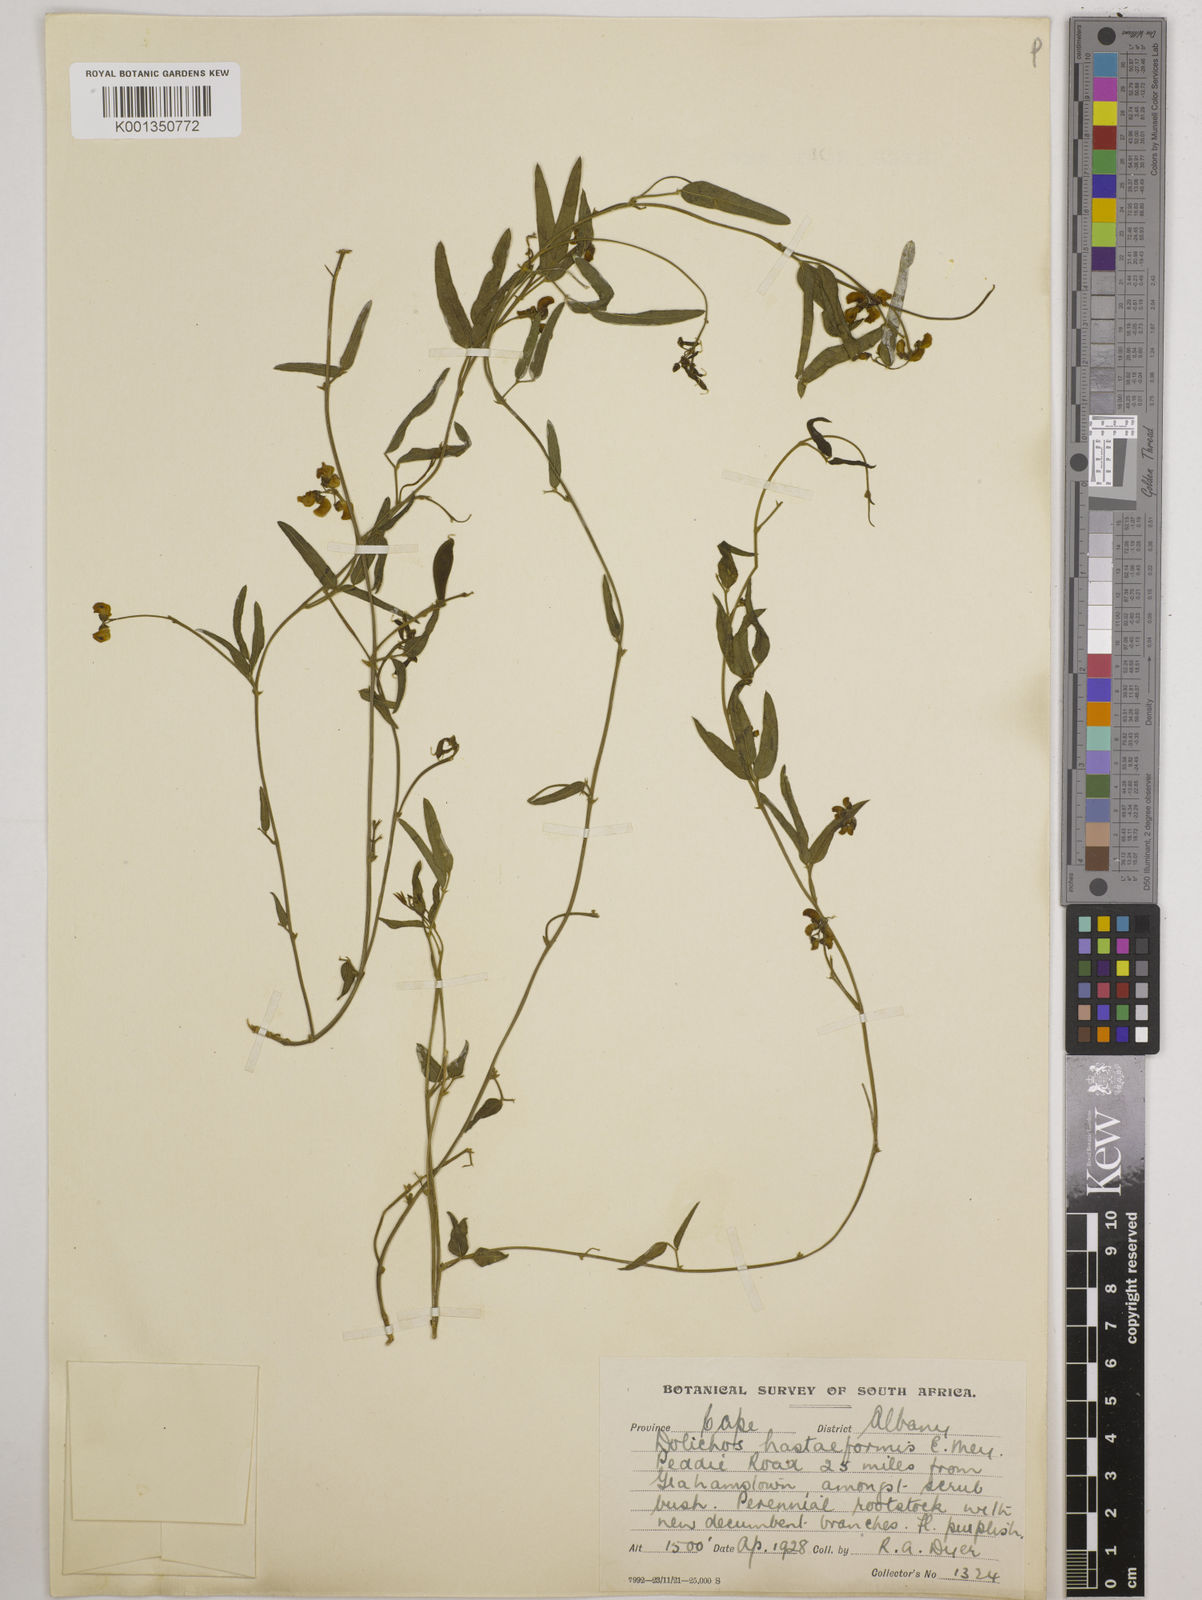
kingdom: Plantae
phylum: Tracheophyta
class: Magnoliopsida
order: Fabales
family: Fabaceae
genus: Dolichos
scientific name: Dolichos
